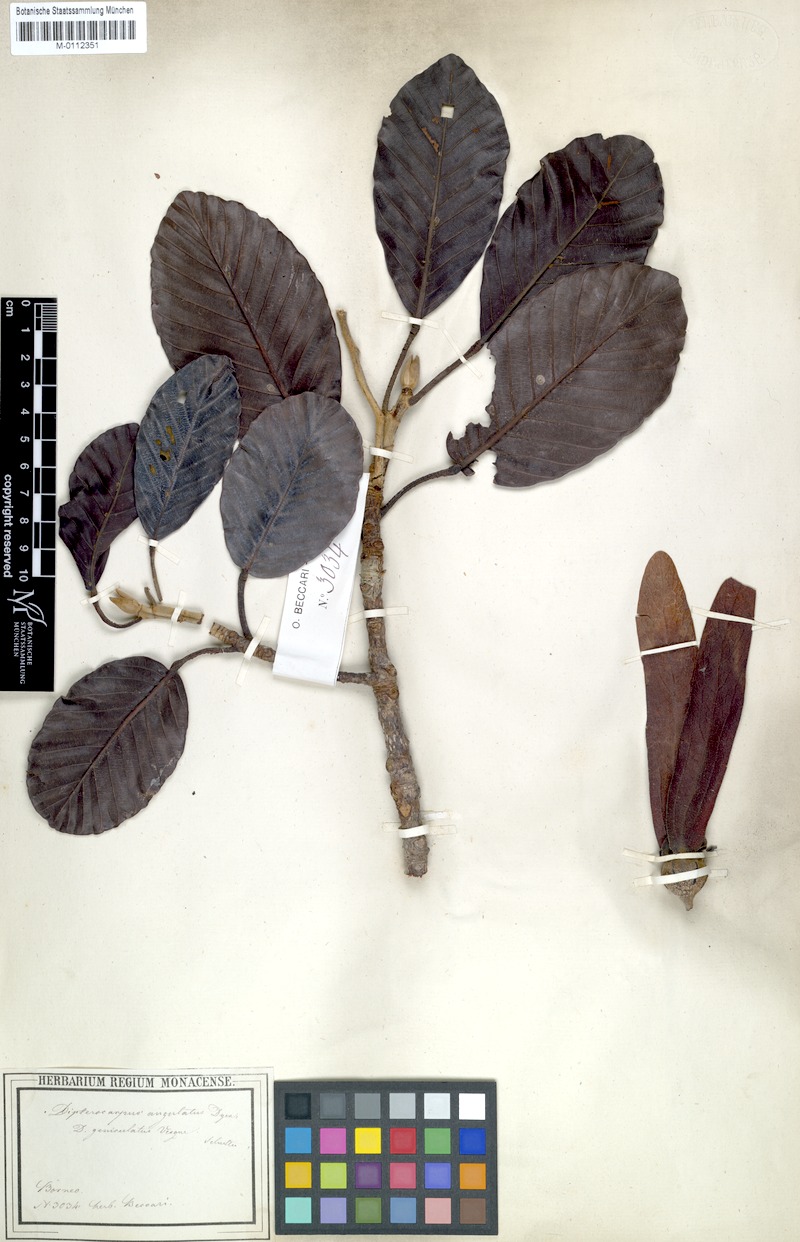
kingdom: Plantae
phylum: Tracheophyta
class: Magnoliopsida
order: Malvales
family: Dipterocarpaceae
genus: Dipterocarpus
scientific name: Dipterocarpus geniculatus
